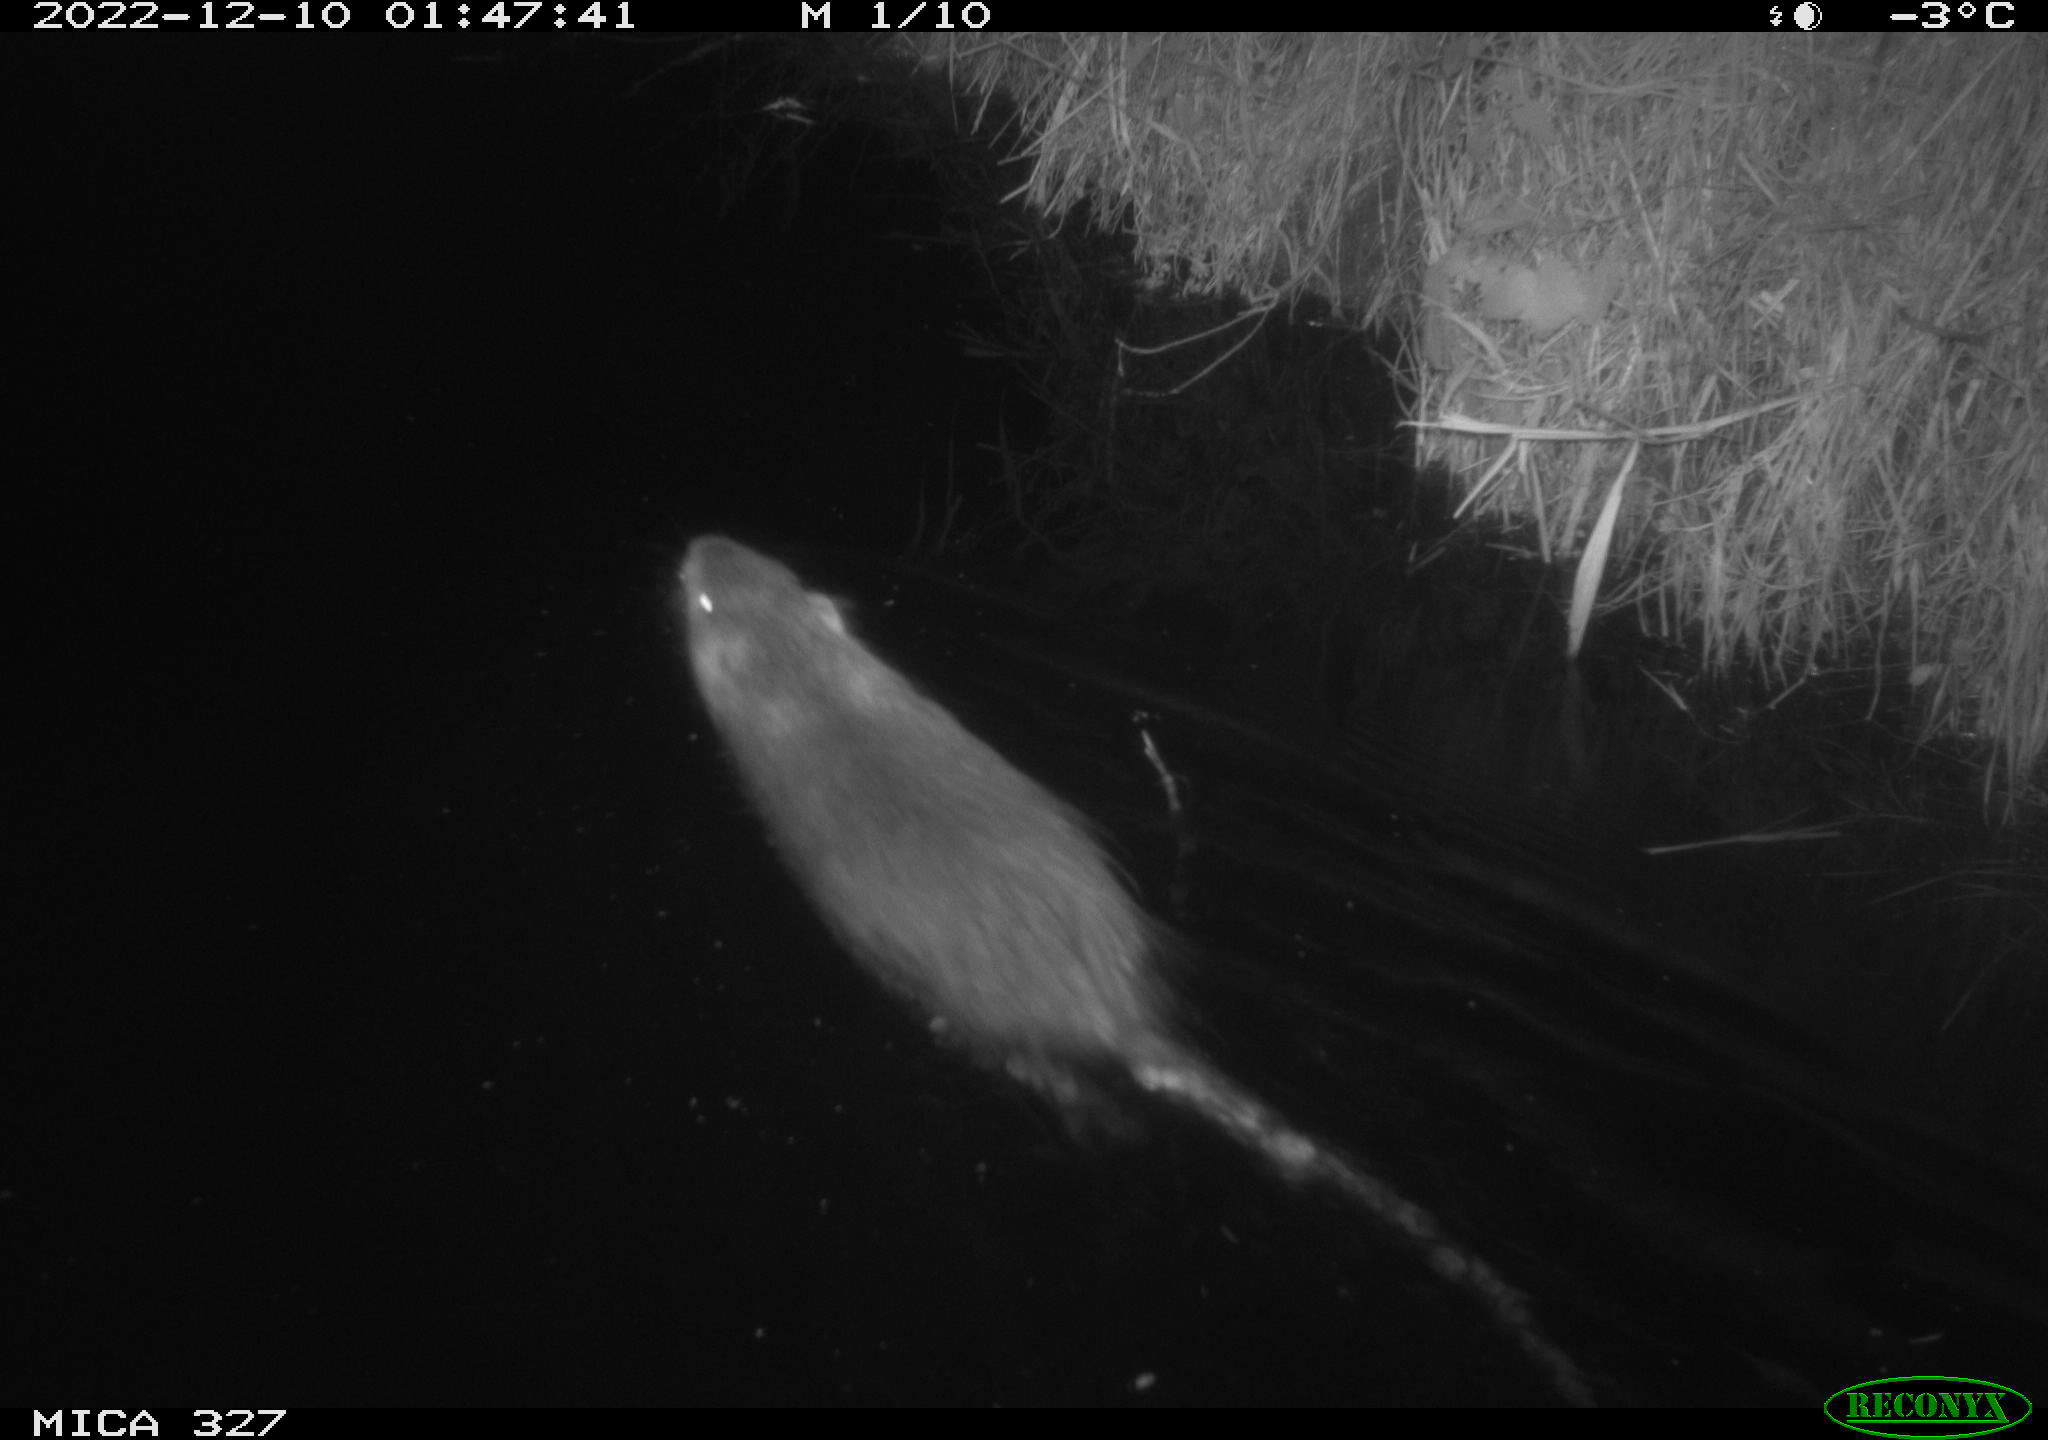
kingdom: Animalia
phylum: Chordata
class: Mammalia
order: Rodentia
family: Myocastoridae
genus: Myocastor
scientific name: Myocastor coypus
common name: Coypu
